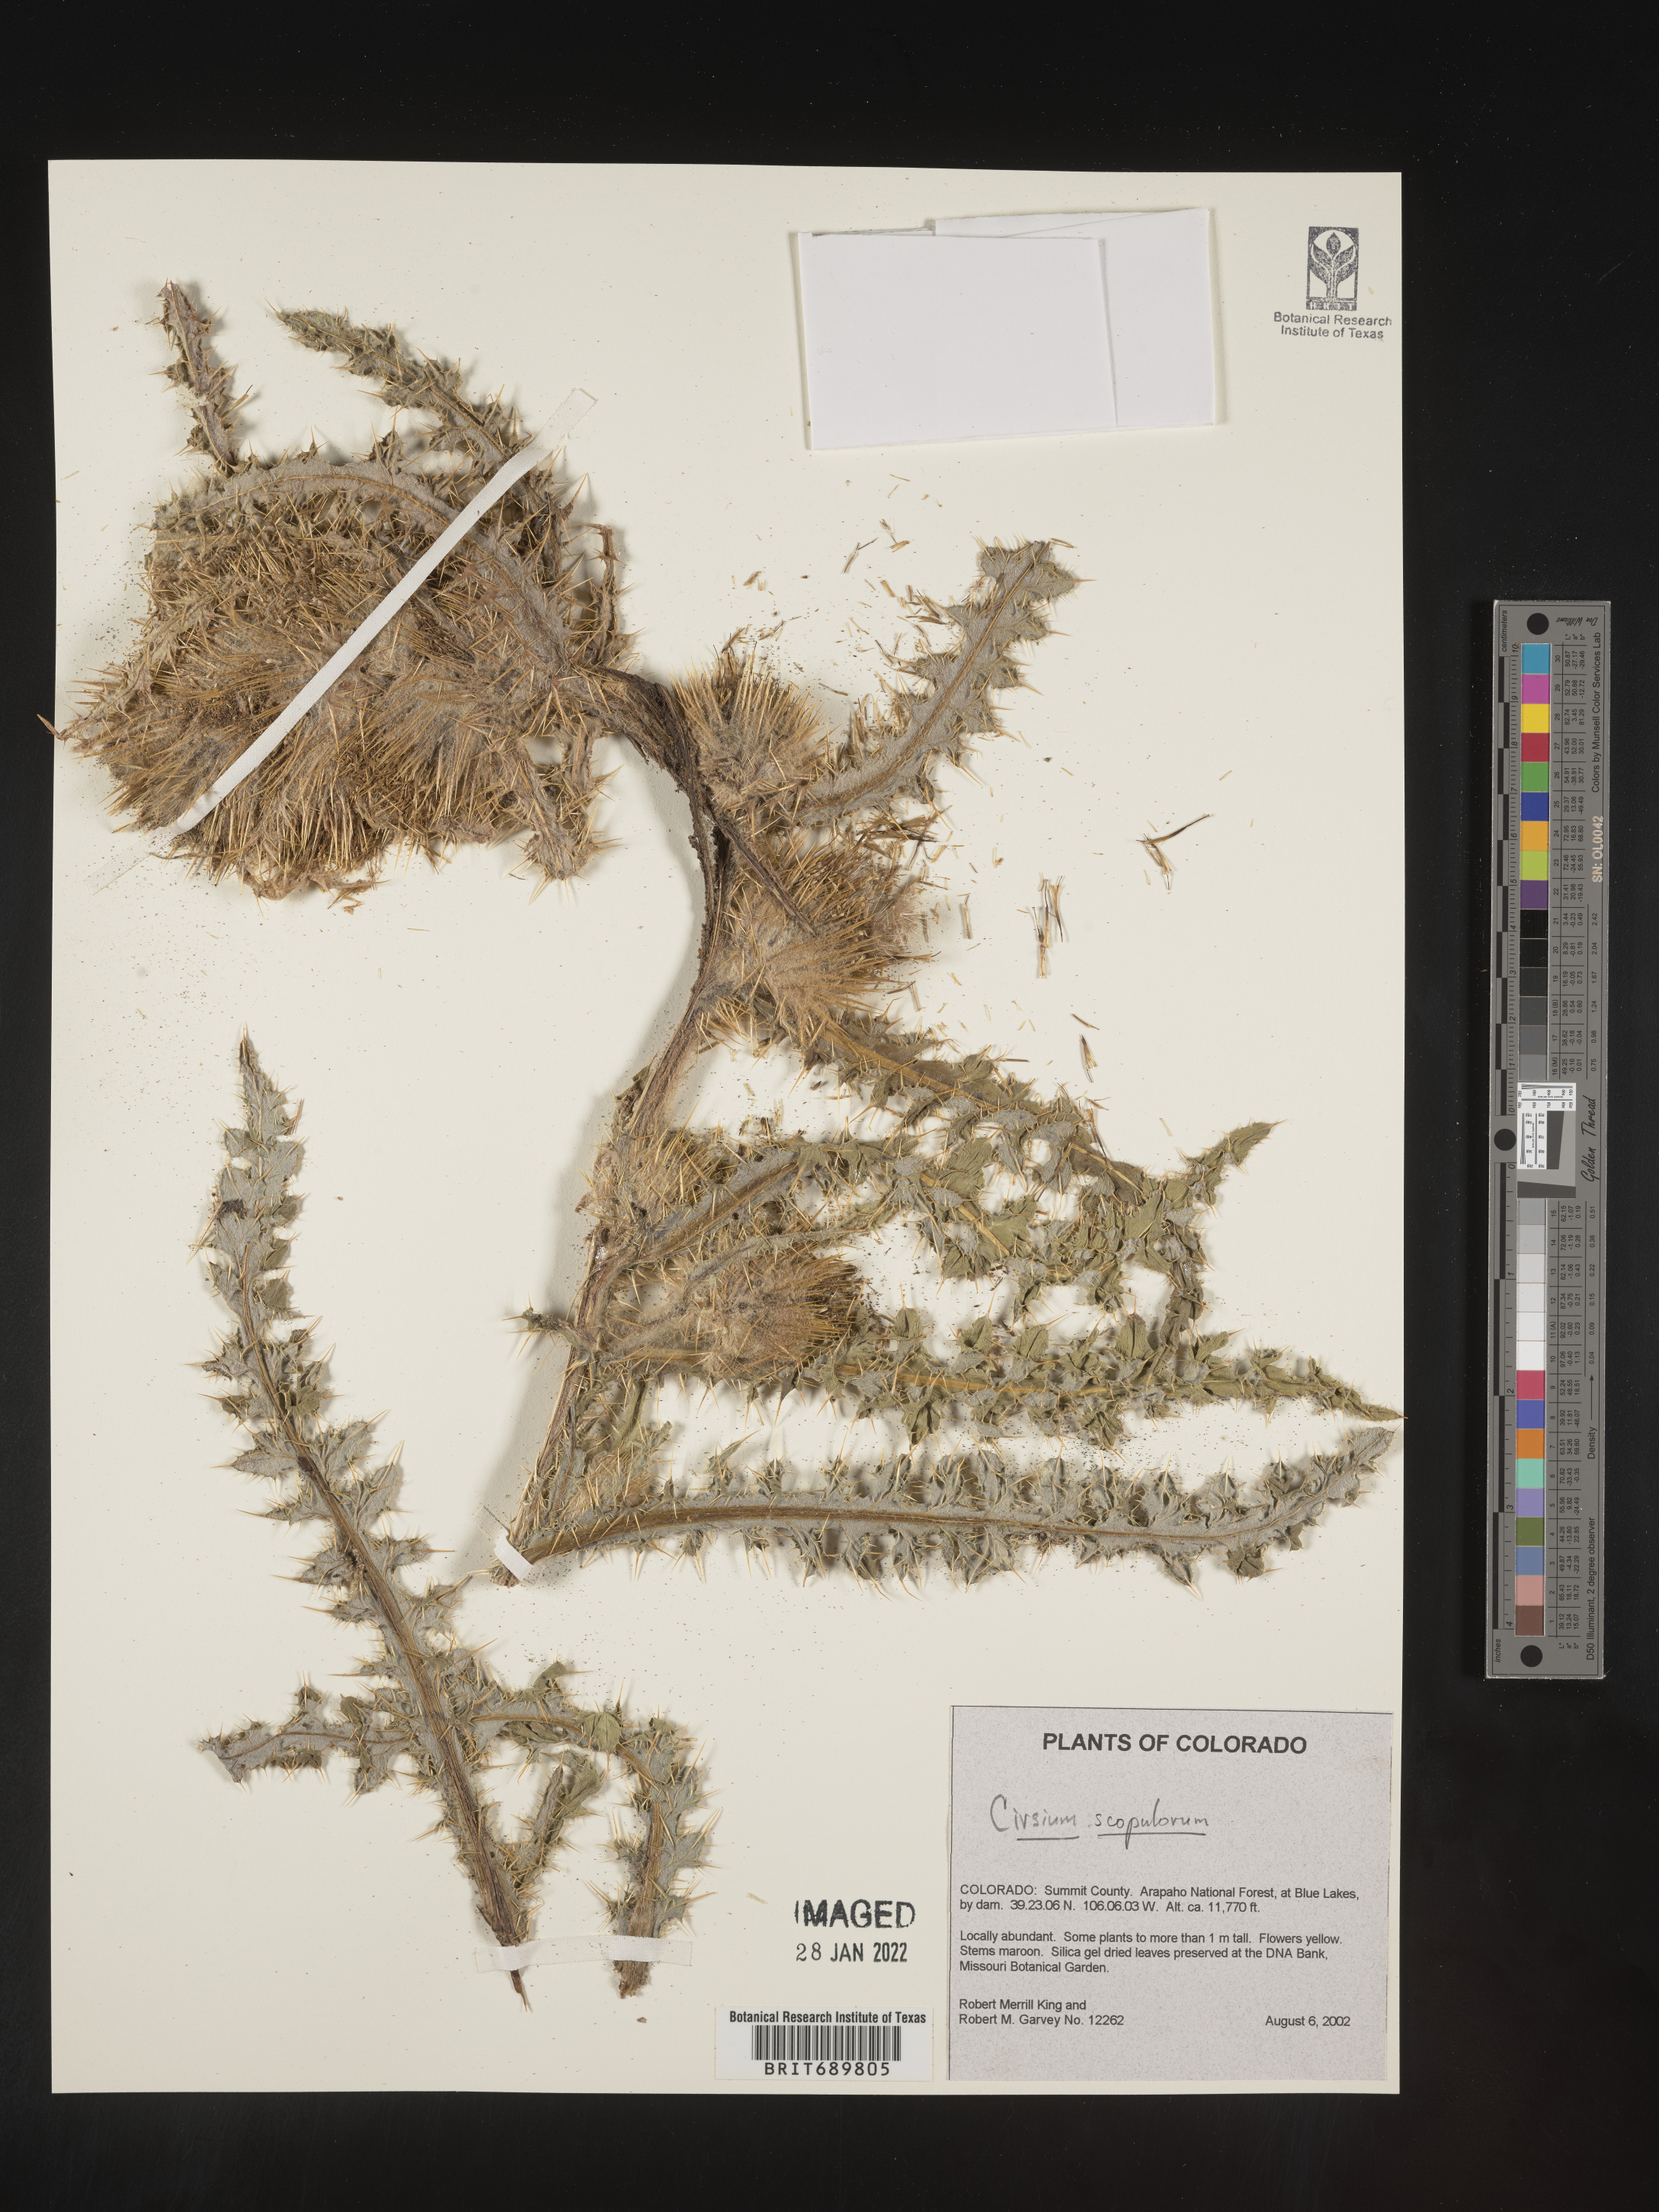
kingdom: Plantae
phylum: Tracheophyta
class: Magnoliopsida
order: Asterales
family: Asteraceae
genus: Cirsium
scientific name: Cirsium scopulorum
